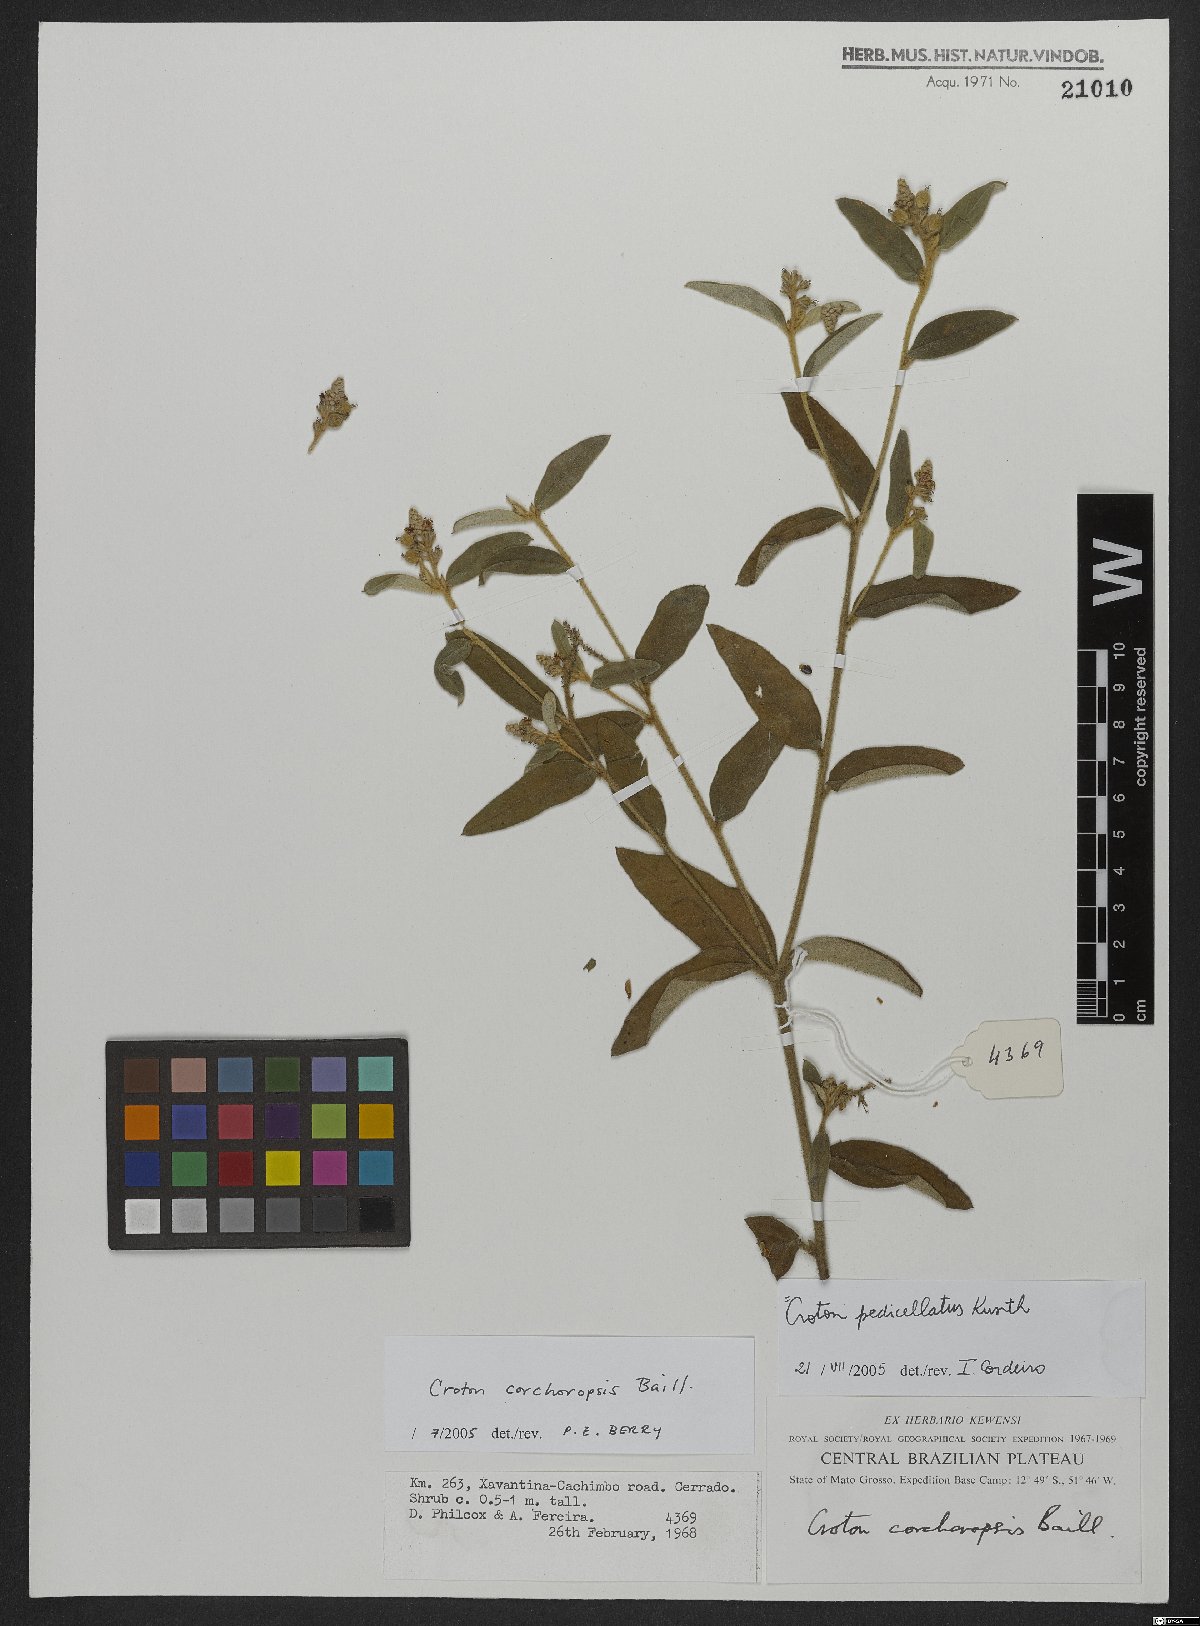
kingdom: Plantae
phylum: Tracheophyta
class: Magnoliopsida
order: Malpighiales
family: Euphorbiaceae
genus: Croton
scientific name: Croton corchoropsis
